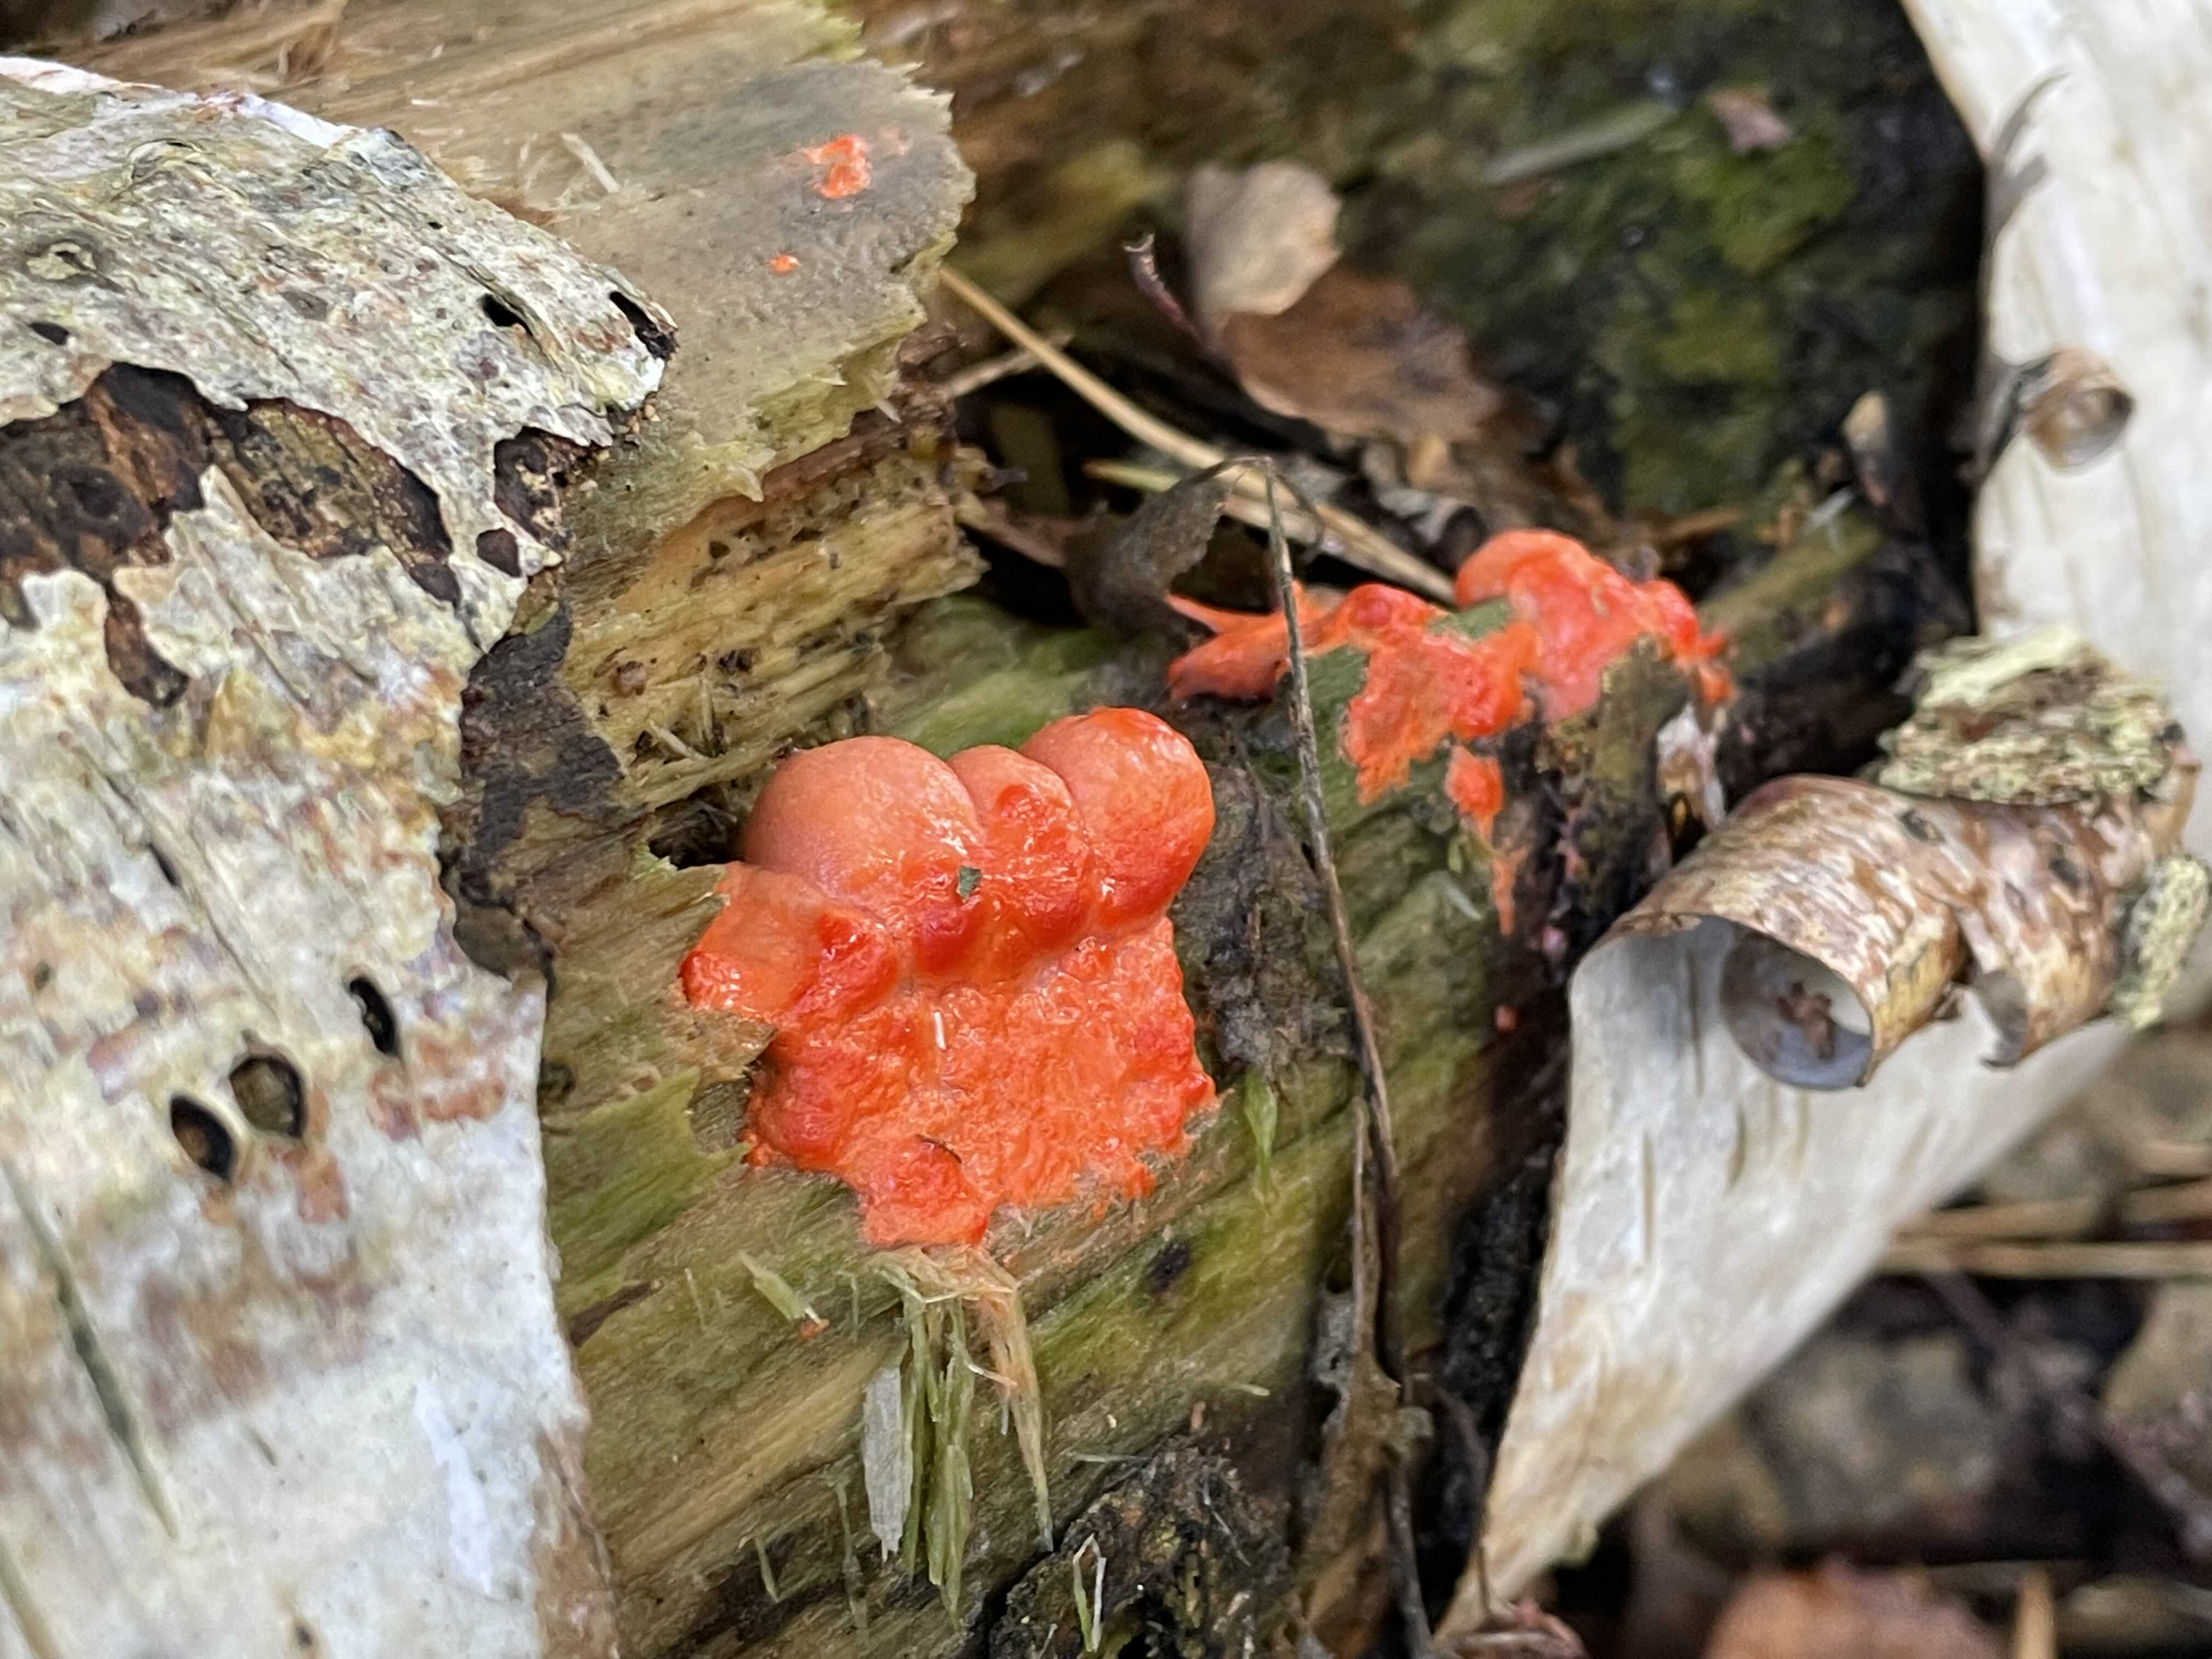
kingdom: Protozoa
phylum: Mycetozoa
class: Myxomycetes
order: Cribrariales
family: Tubiferaceae
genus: Lycogala
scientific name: Lycogala epidendrum
